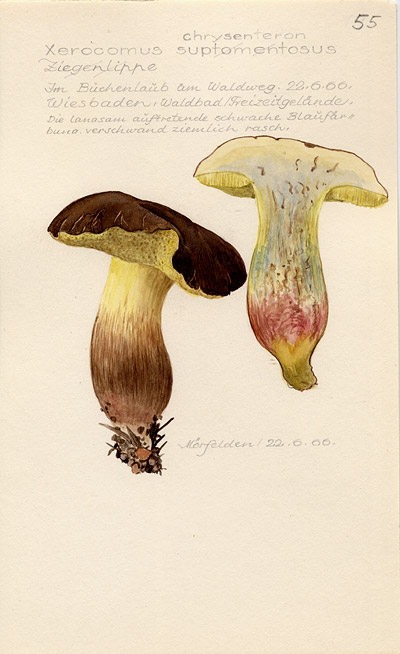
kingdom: Fungi
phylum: Basidiomycota
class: Agaricomycetes
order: Boletales
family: Boletaceae
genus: Xerocomellus
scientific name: Xerocomellus chrysenteron
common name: Red-cracking bolete
